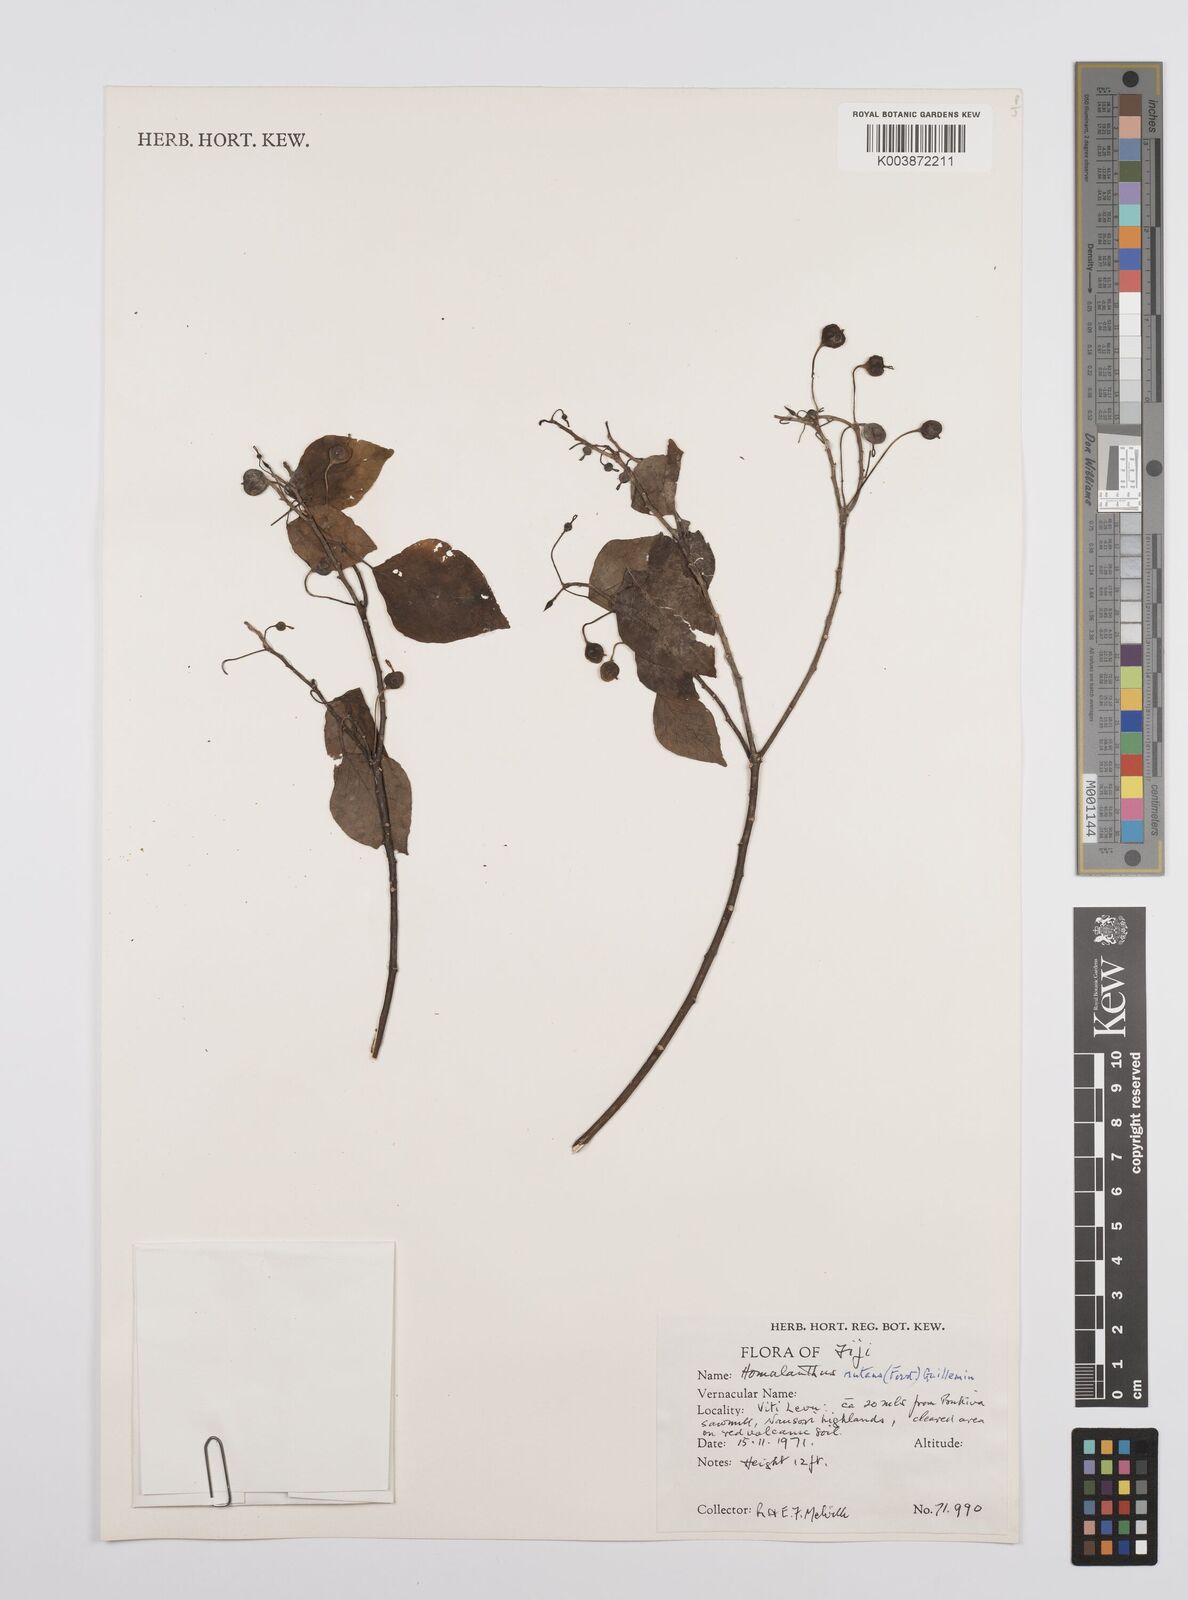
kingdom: Plantae
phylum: Tracheophyta
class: Magnoliopsida
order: Malpighiales
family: Euphorbiaceae
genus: Homalanthus
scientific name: Homalanthus nutans
